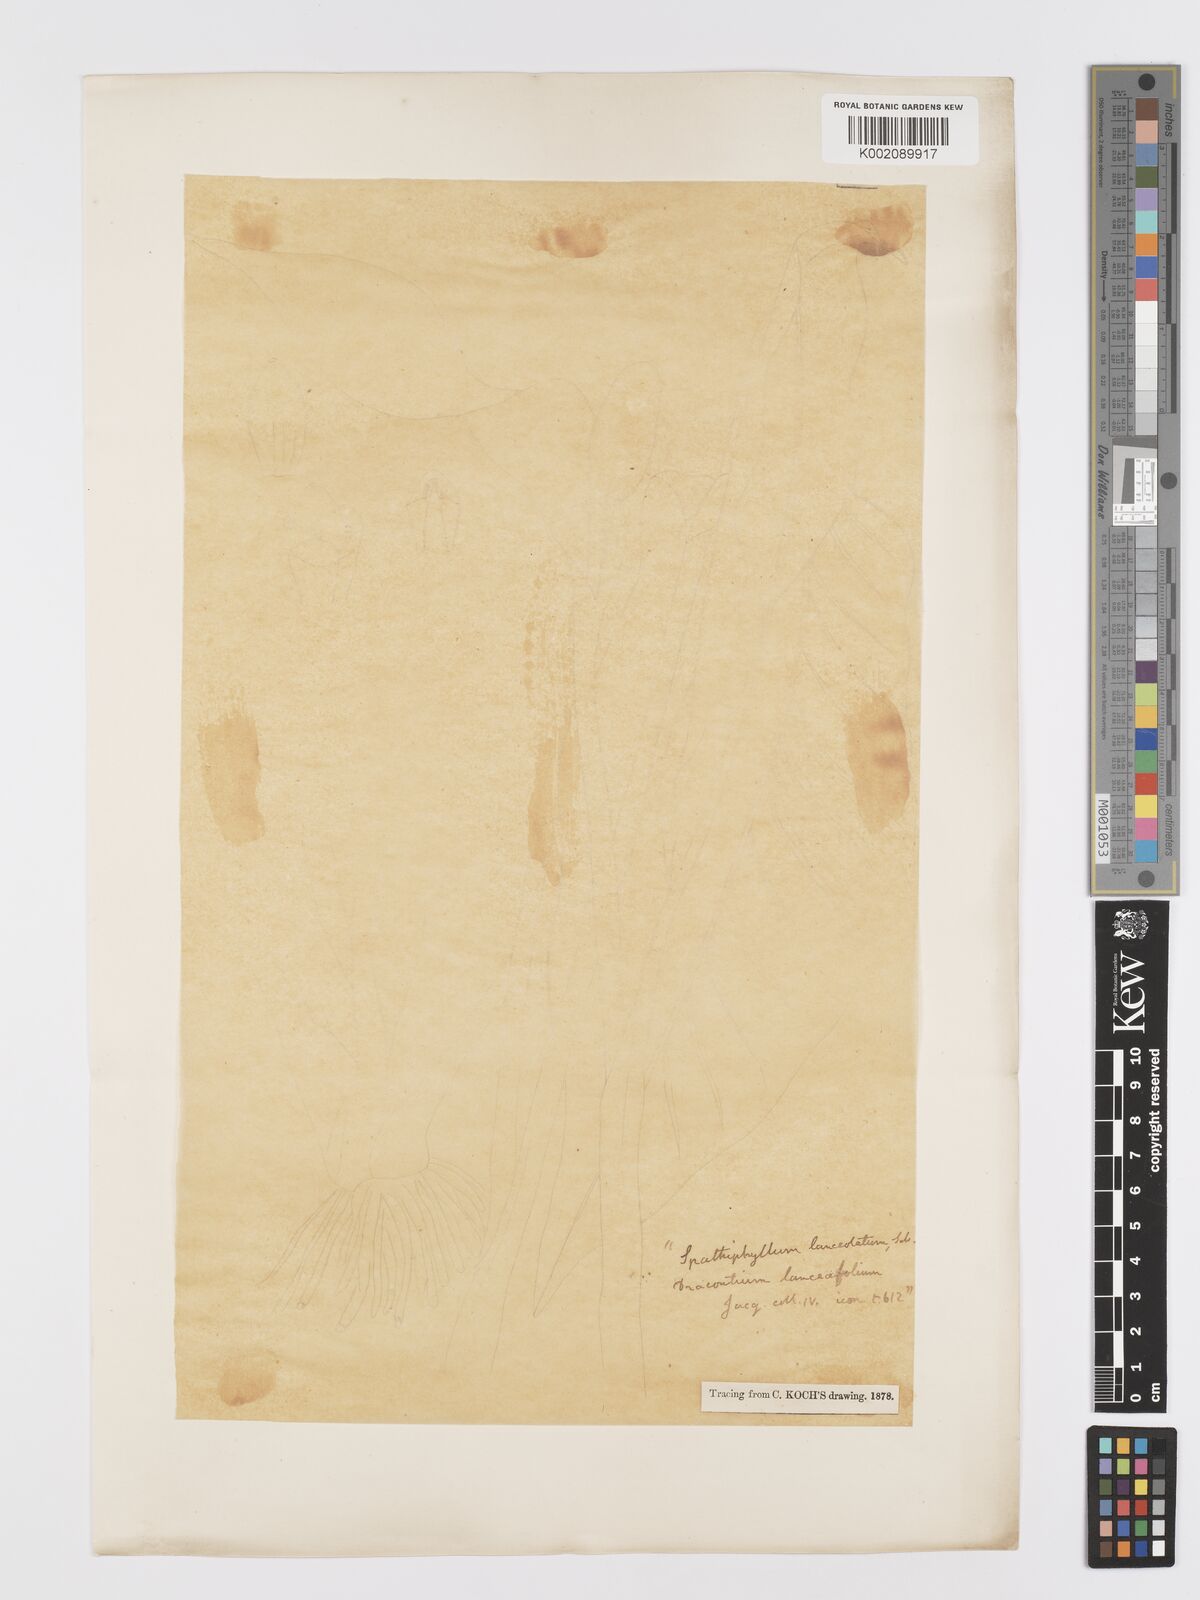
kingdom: Plantae
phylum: Tracheophyta
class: Liliopsida
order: Alismatales
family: Araceae
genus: Spathiphyllum
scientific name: Spathiphyllum humboldtii
